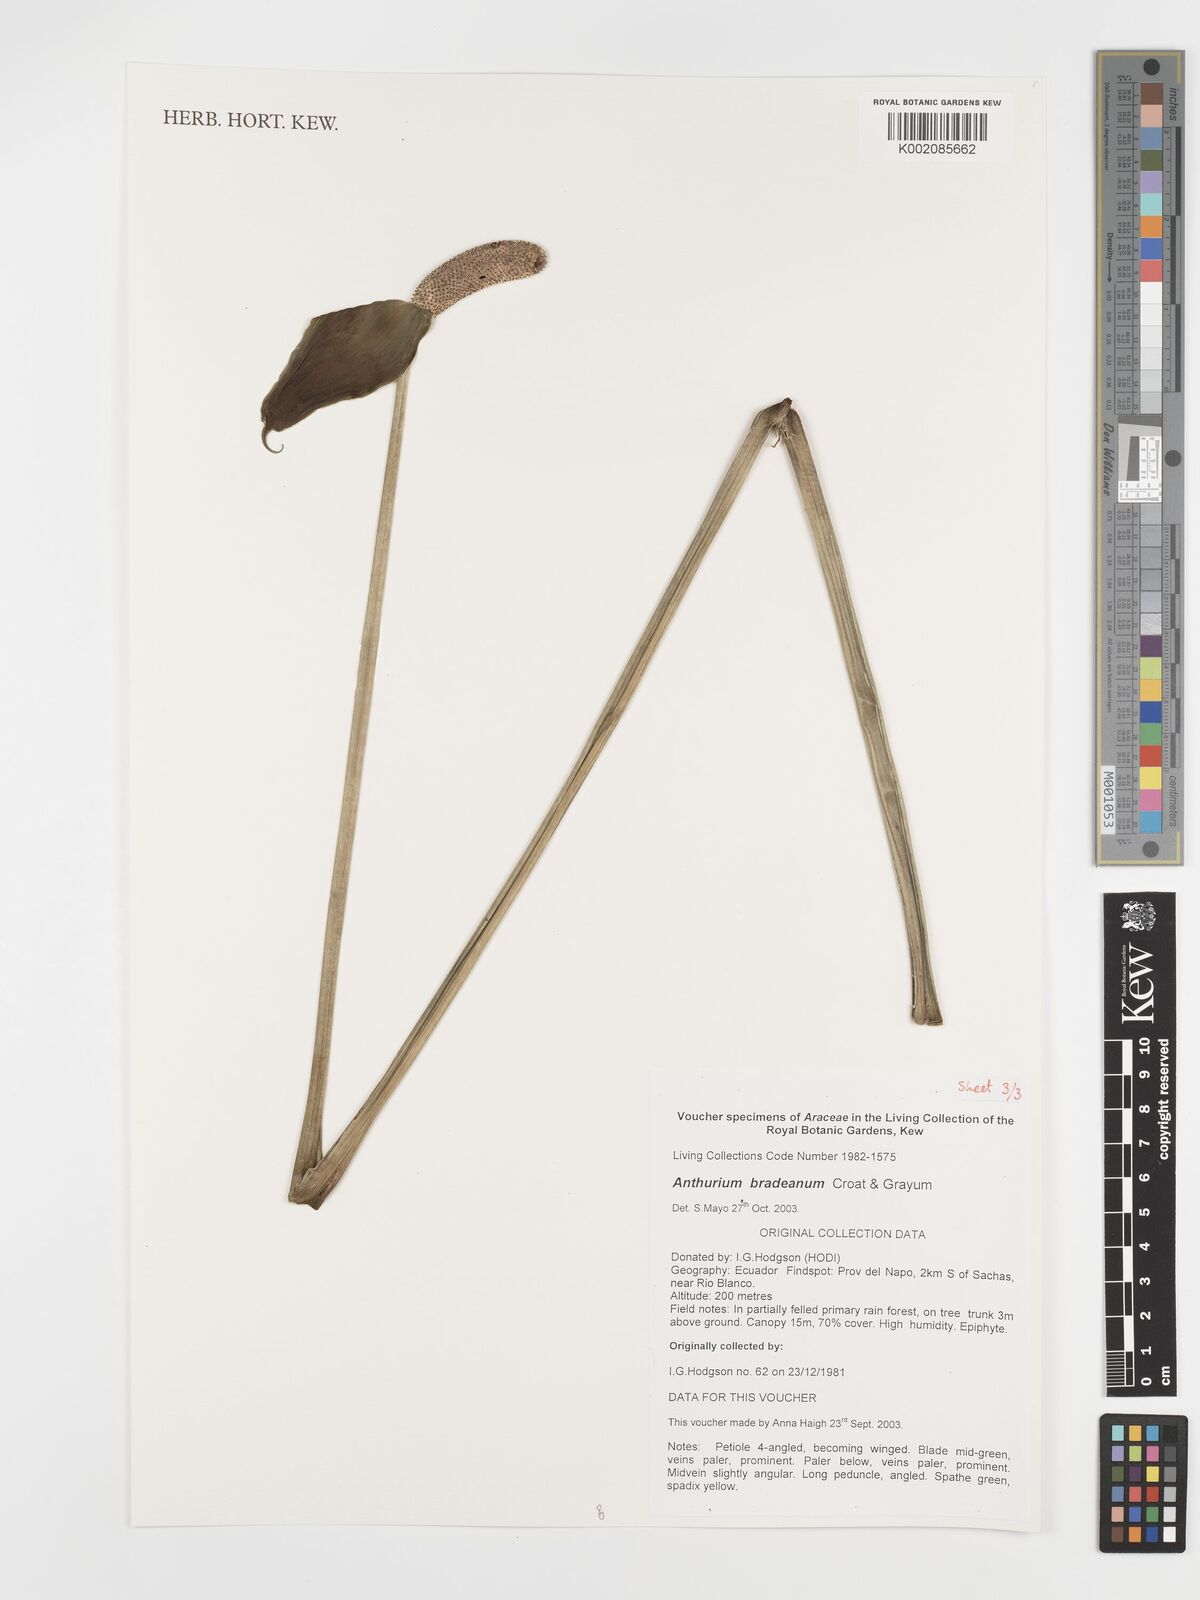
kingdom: Plantae
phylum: Tracheophyta
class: Liliopsida
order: Alismatales
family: Araceae
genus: Anthurium
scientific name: Anthurium bradeanum
